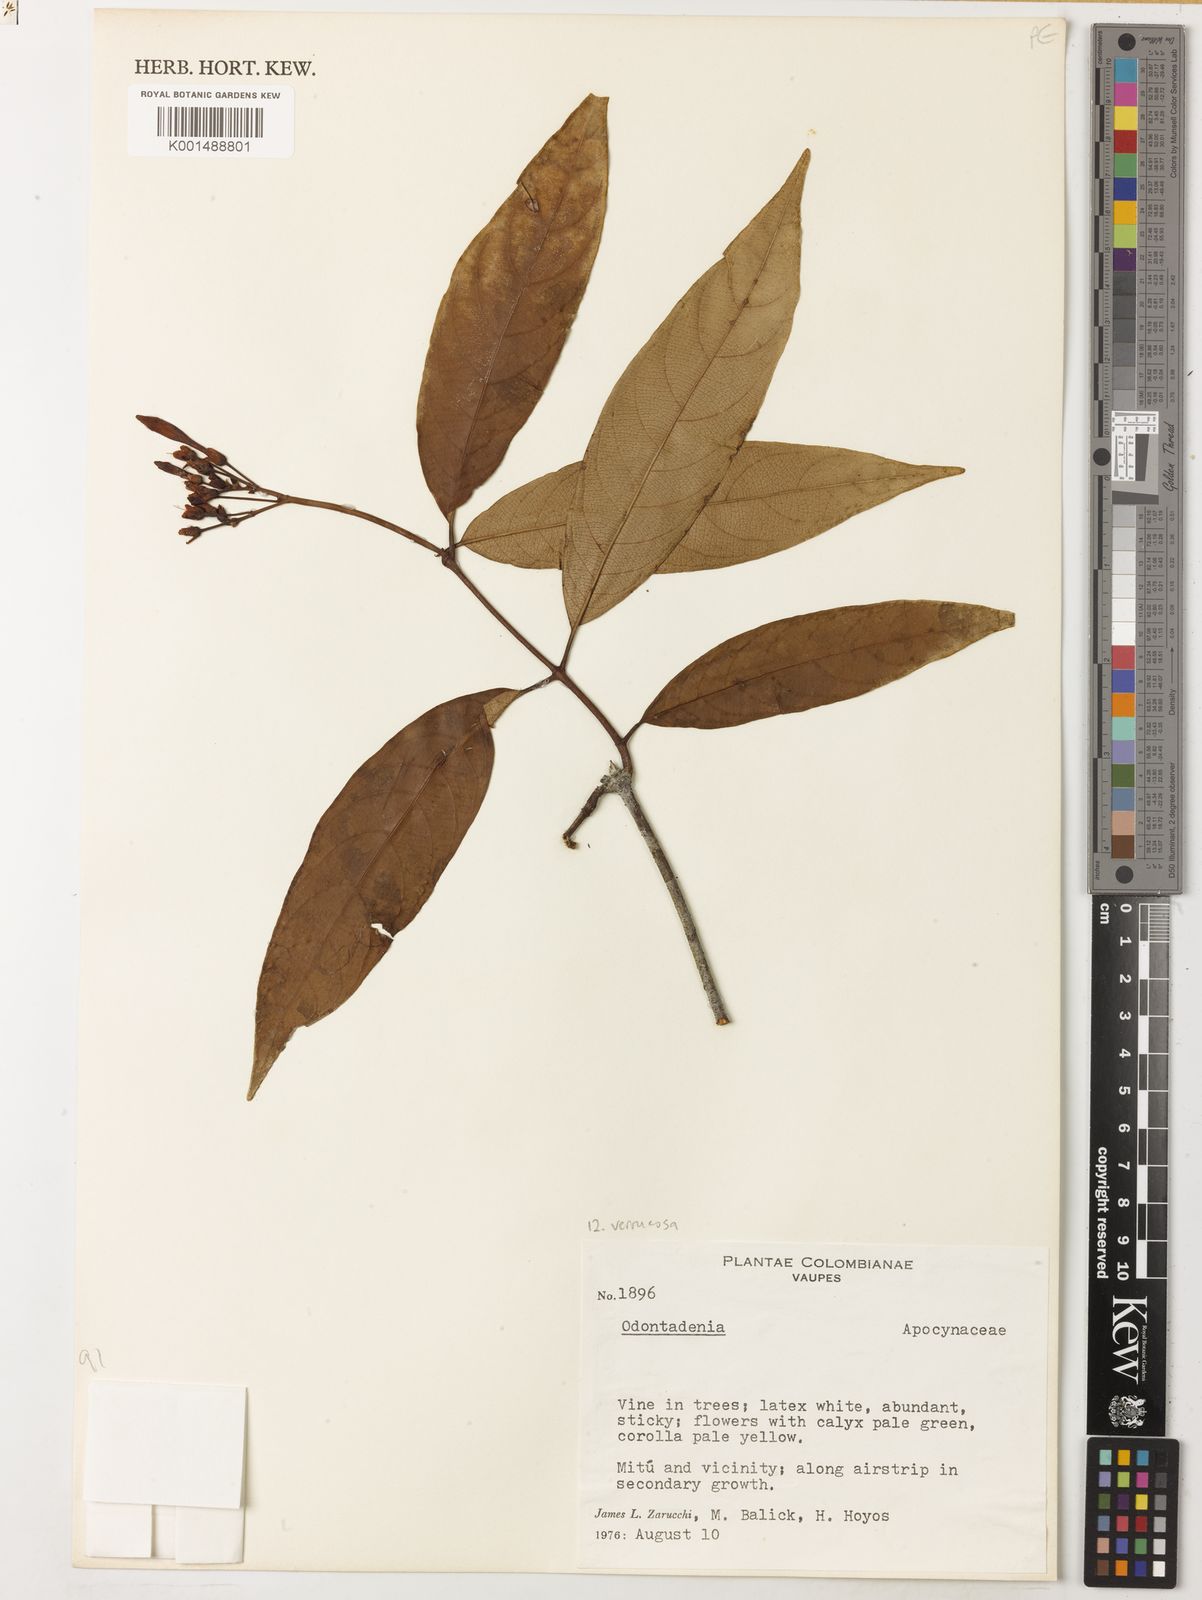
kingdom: Plantae
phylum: Tracheophyta
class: Magnoliopsida
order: Gentianales
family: Apocynaceae
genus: Odontadenia
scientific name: Odontadenia verrucosa
